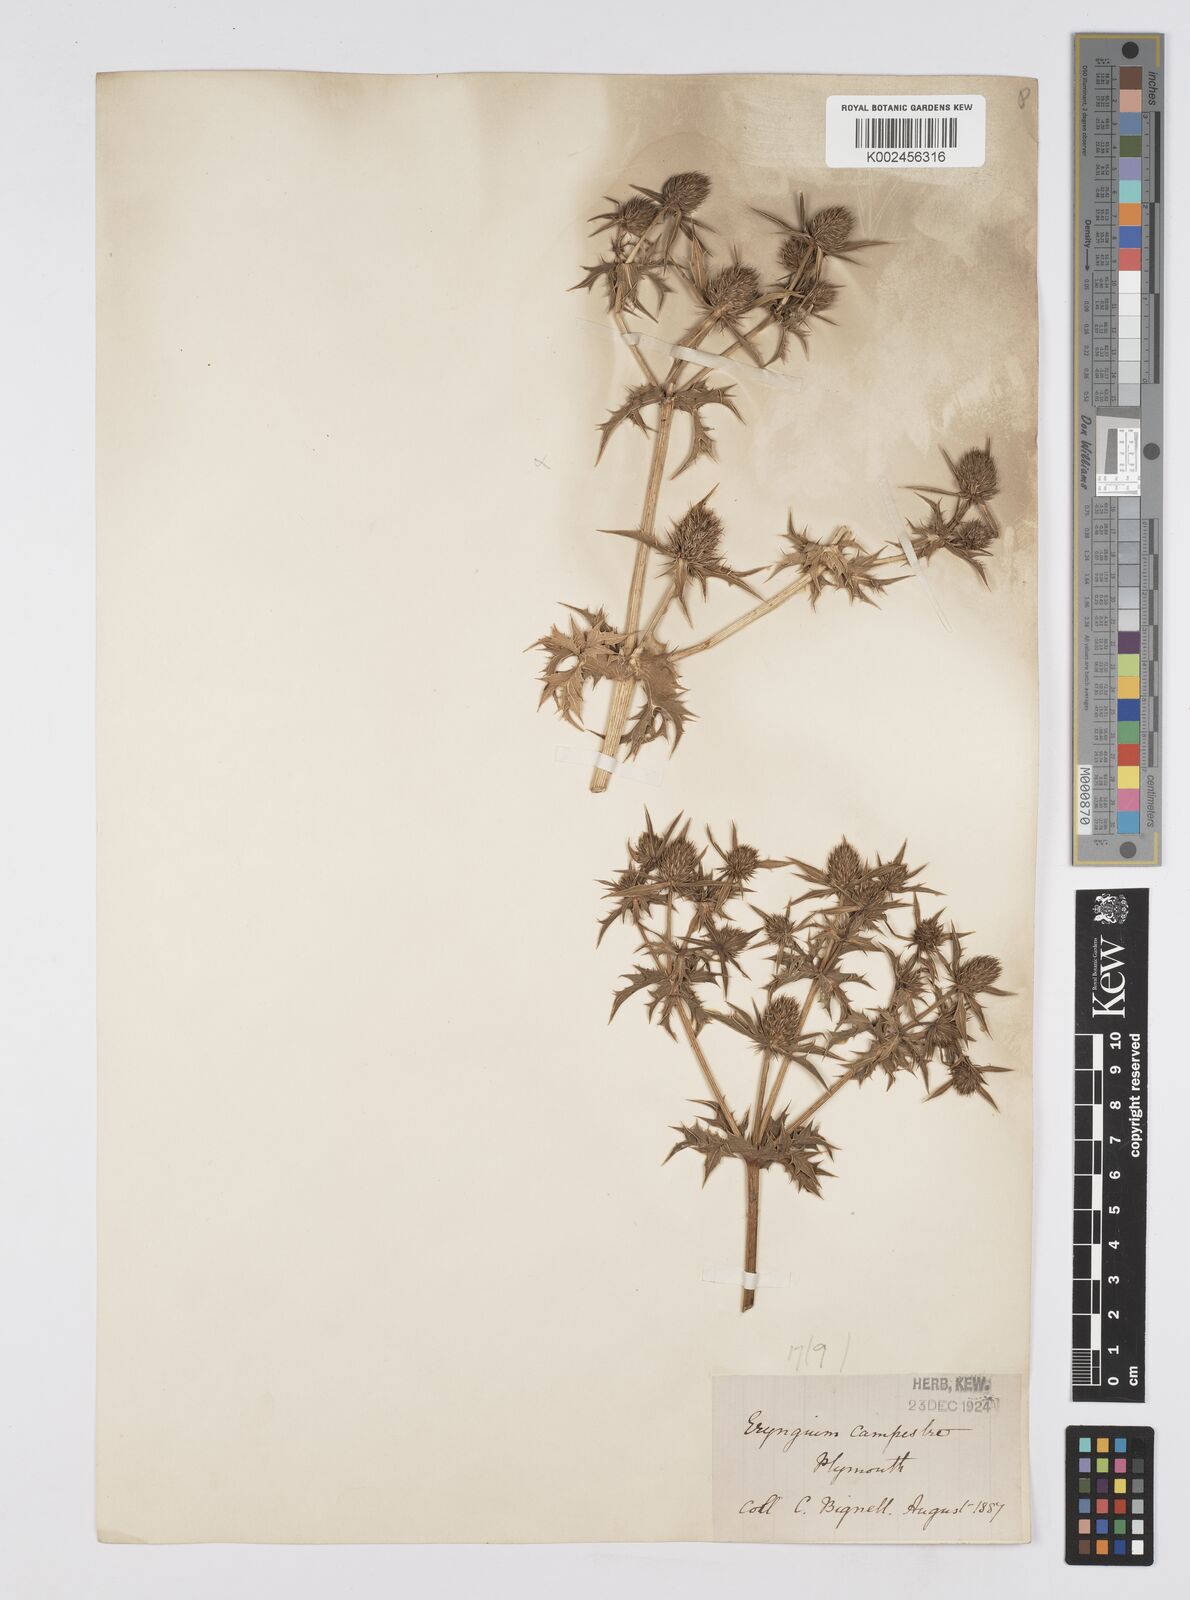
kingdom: Plantae
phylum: Tracheophyta
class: Magnoliopsida
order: Apiales
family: Apiaceae
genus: Eryngium
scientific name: Eryngium campestre
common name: Field eryngo
